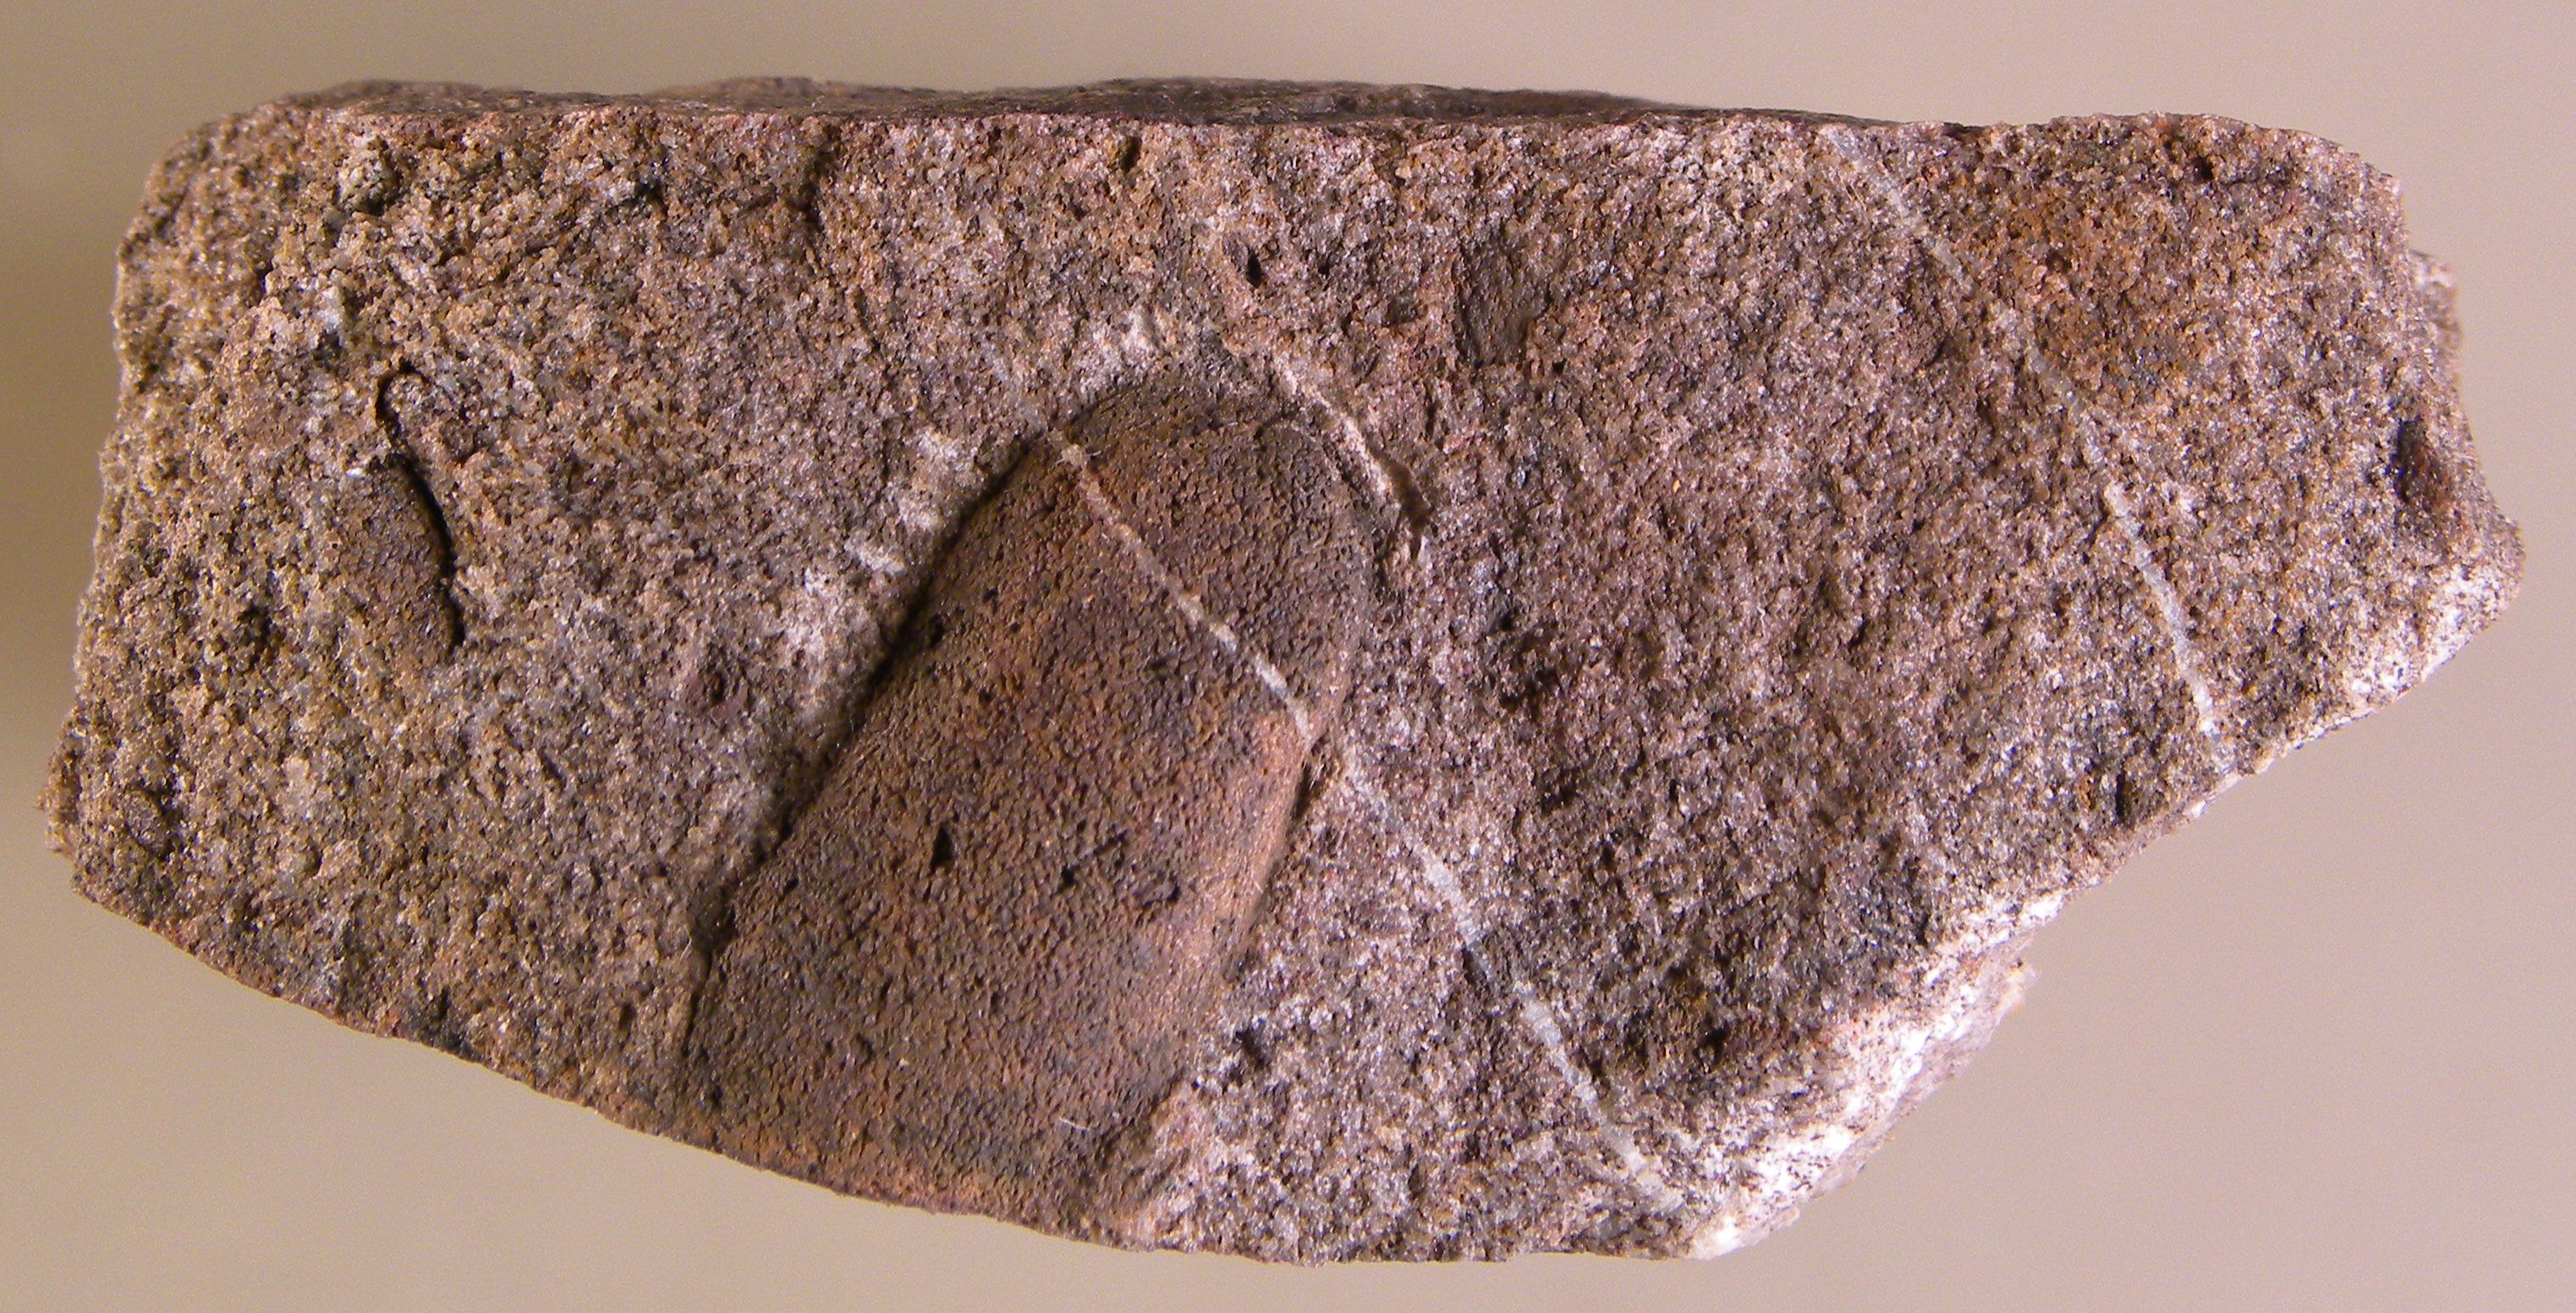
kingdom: Animalia
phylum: Mollusca
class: Bivalvia
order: Nuculanida
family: Malletiidae
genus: Palaeoneilo
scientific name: Palaeoneilo
